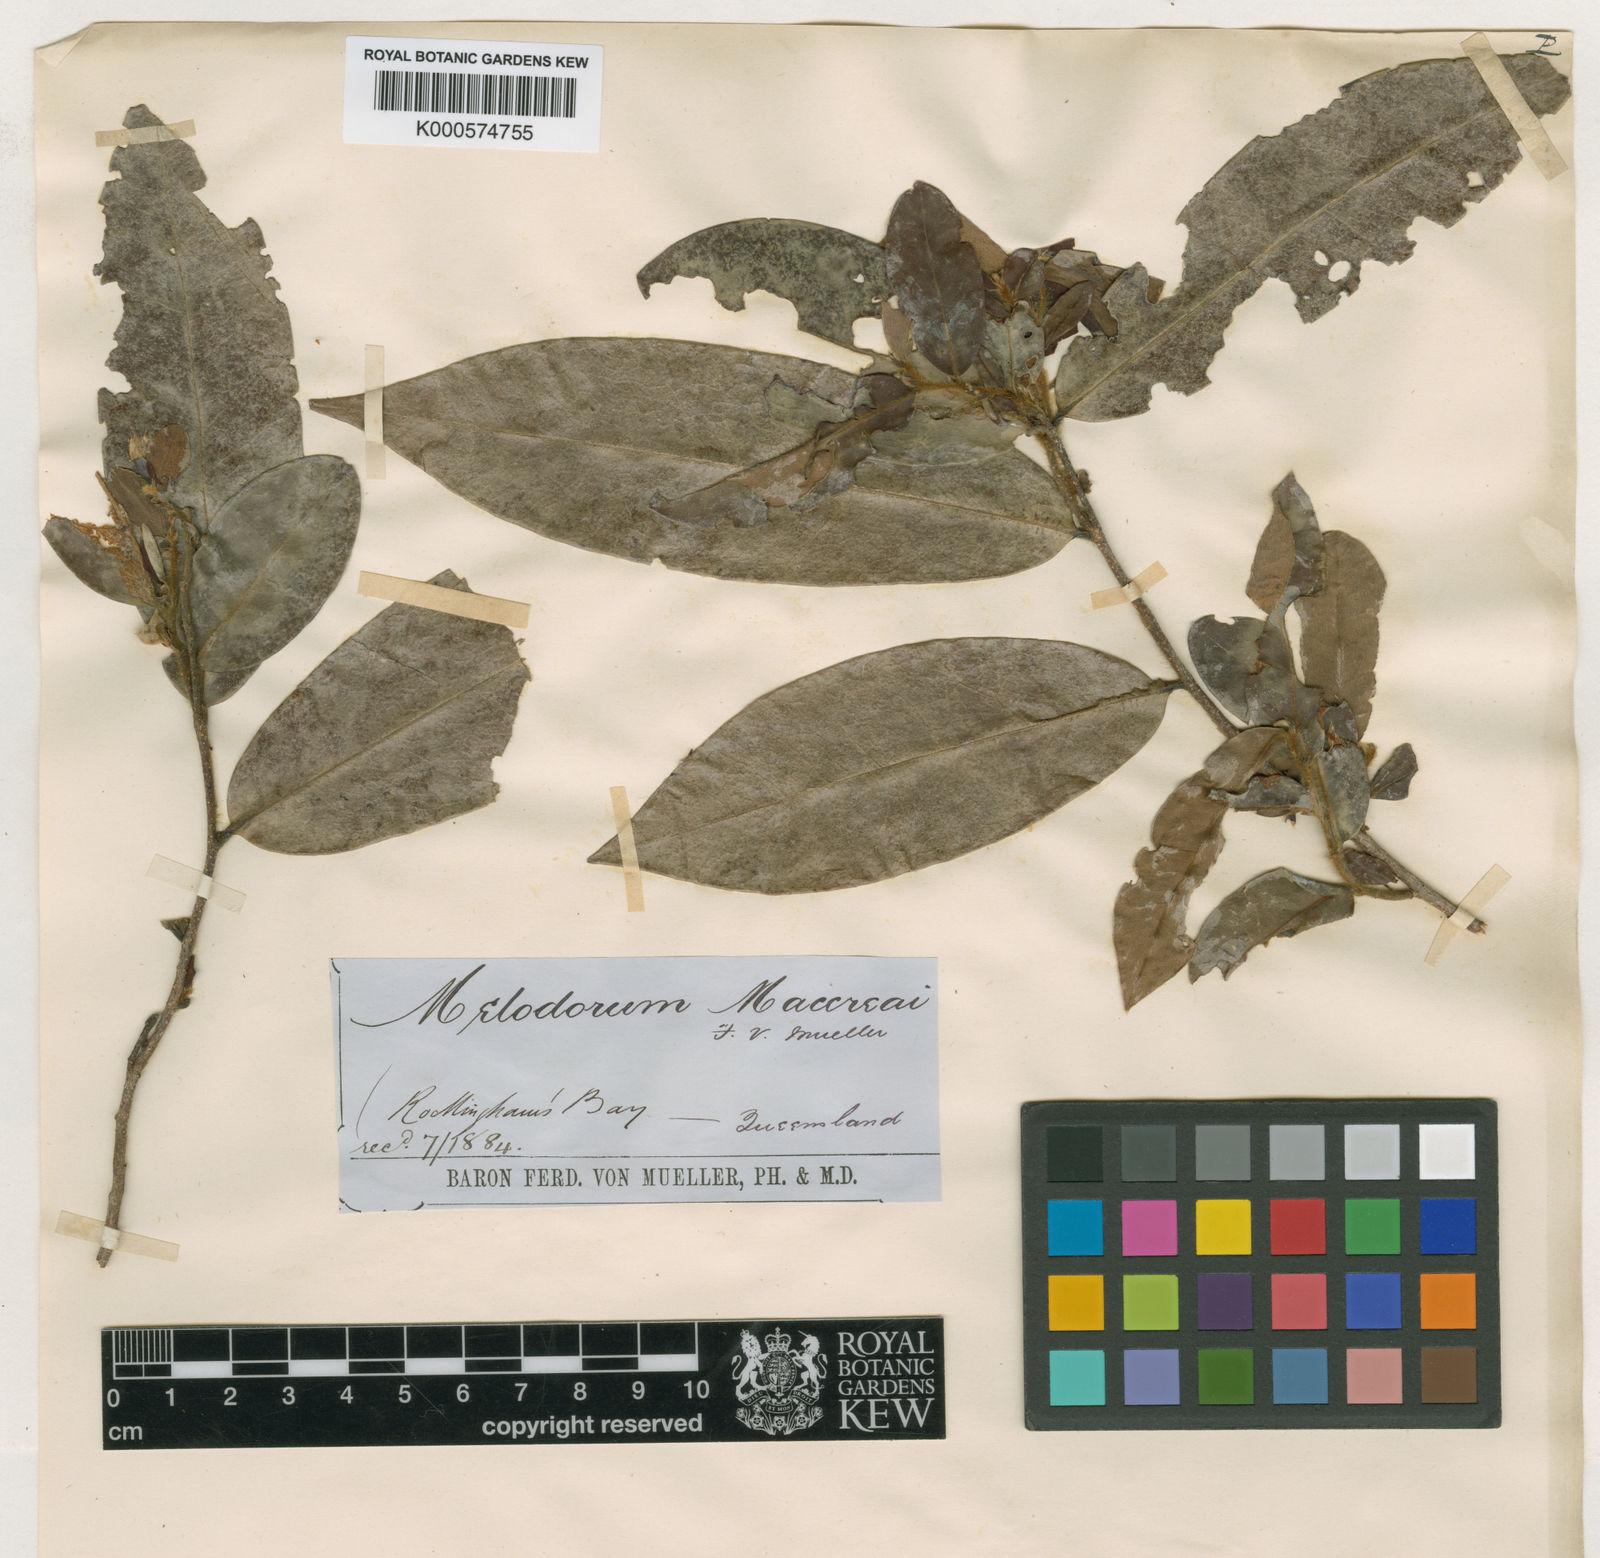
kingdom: Plantae
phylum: Tracheophyta
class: Magnoliopsida
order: Magnoliales
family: Annonaceae
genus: Xylopia
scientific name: Xylopia
